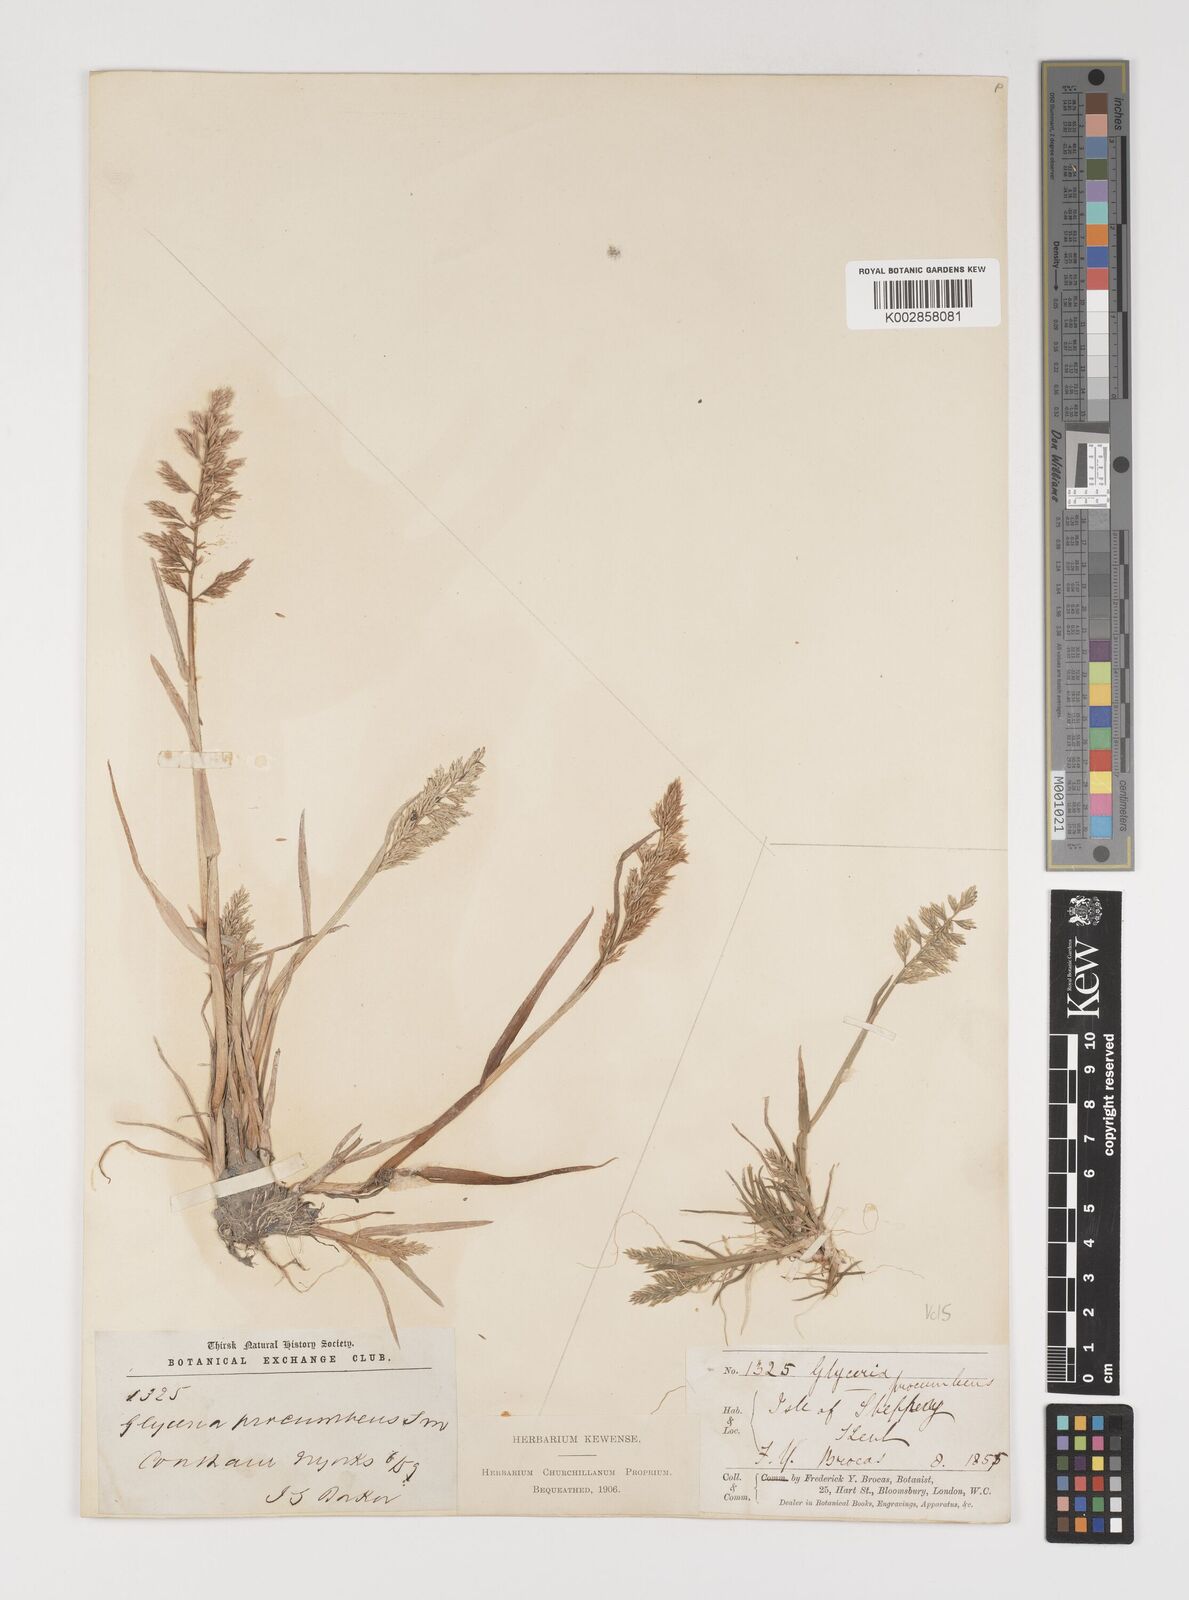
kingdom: Plantae
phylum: Tracheophyta
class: Liliopsida
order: Poales
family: Poaceae
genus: Puccinellia
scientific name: Puccinellia rupestris
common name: Stiff saltmarsh-grass
